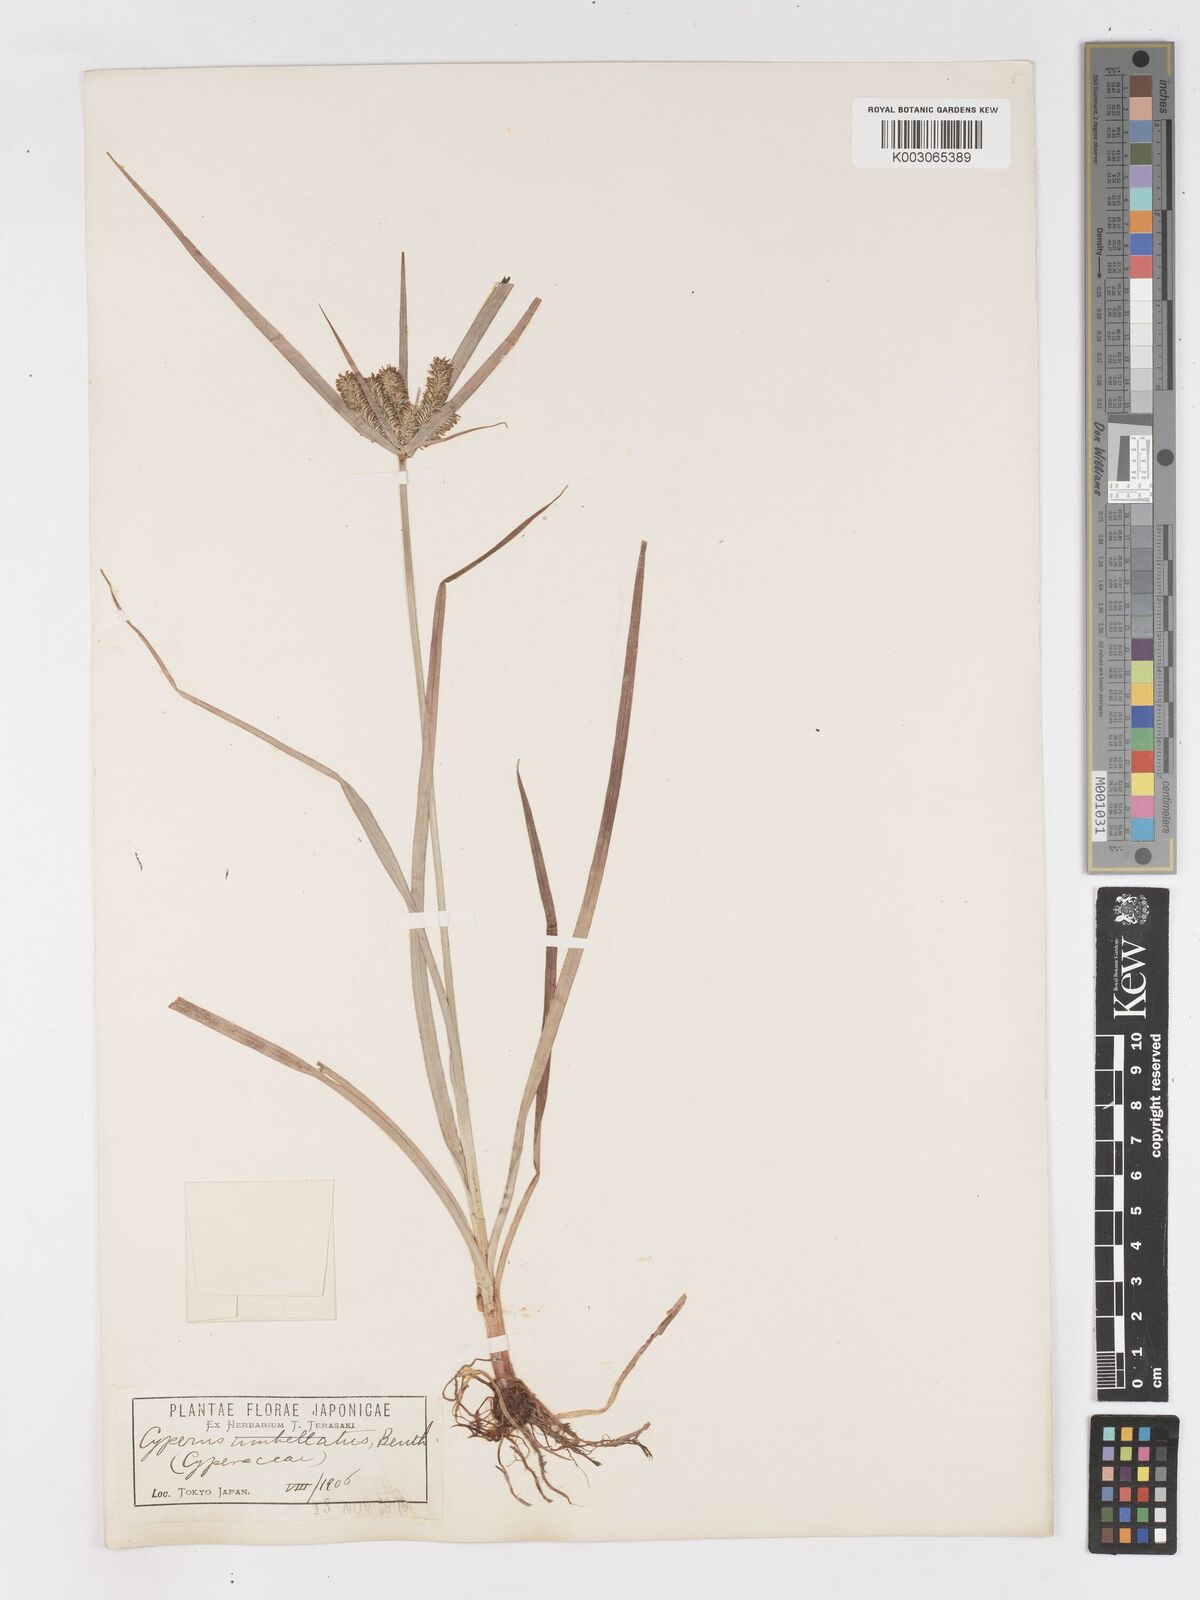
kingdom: Plantae
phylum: Tracheophyta
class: Liliopsida
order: Poales
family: Cyperaceae
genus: Cyperus
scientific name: Cyperus cyperoides
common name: Pacific island flat sedge
